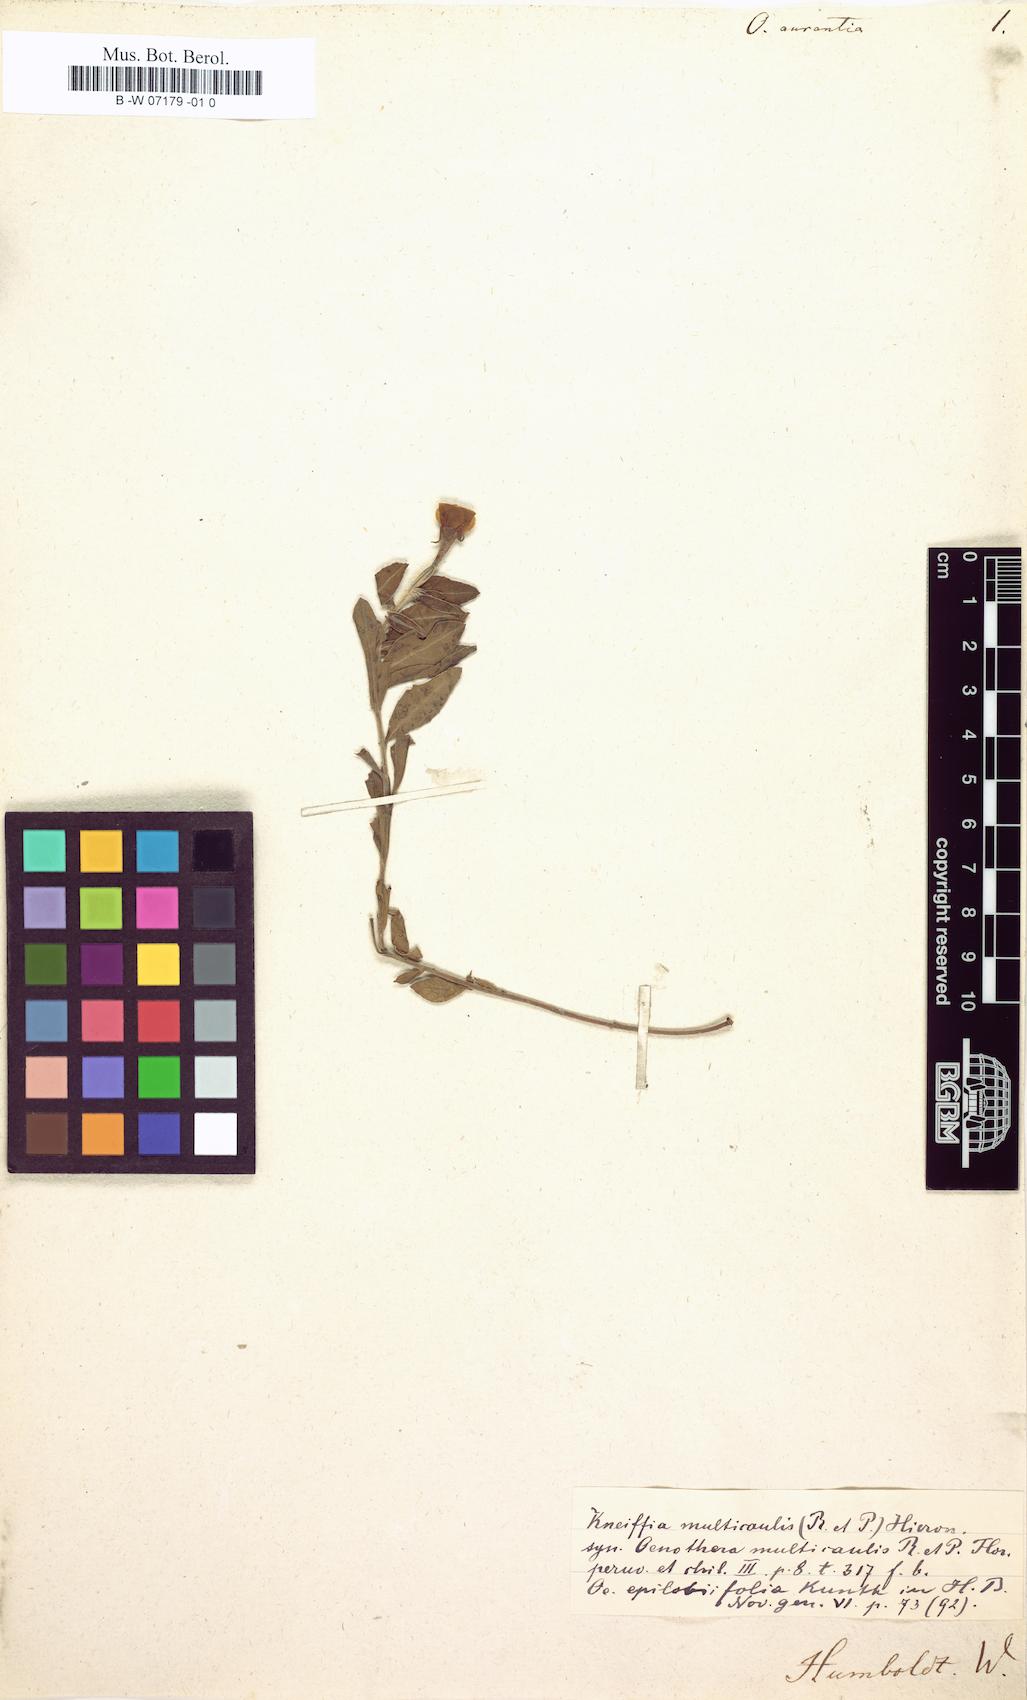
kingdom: Plantae
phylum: Tracheophyta
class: Magnoliopsida
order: Myrtales
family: Onagraceae
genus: Oenothera
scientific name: Oenothera multicaulis
